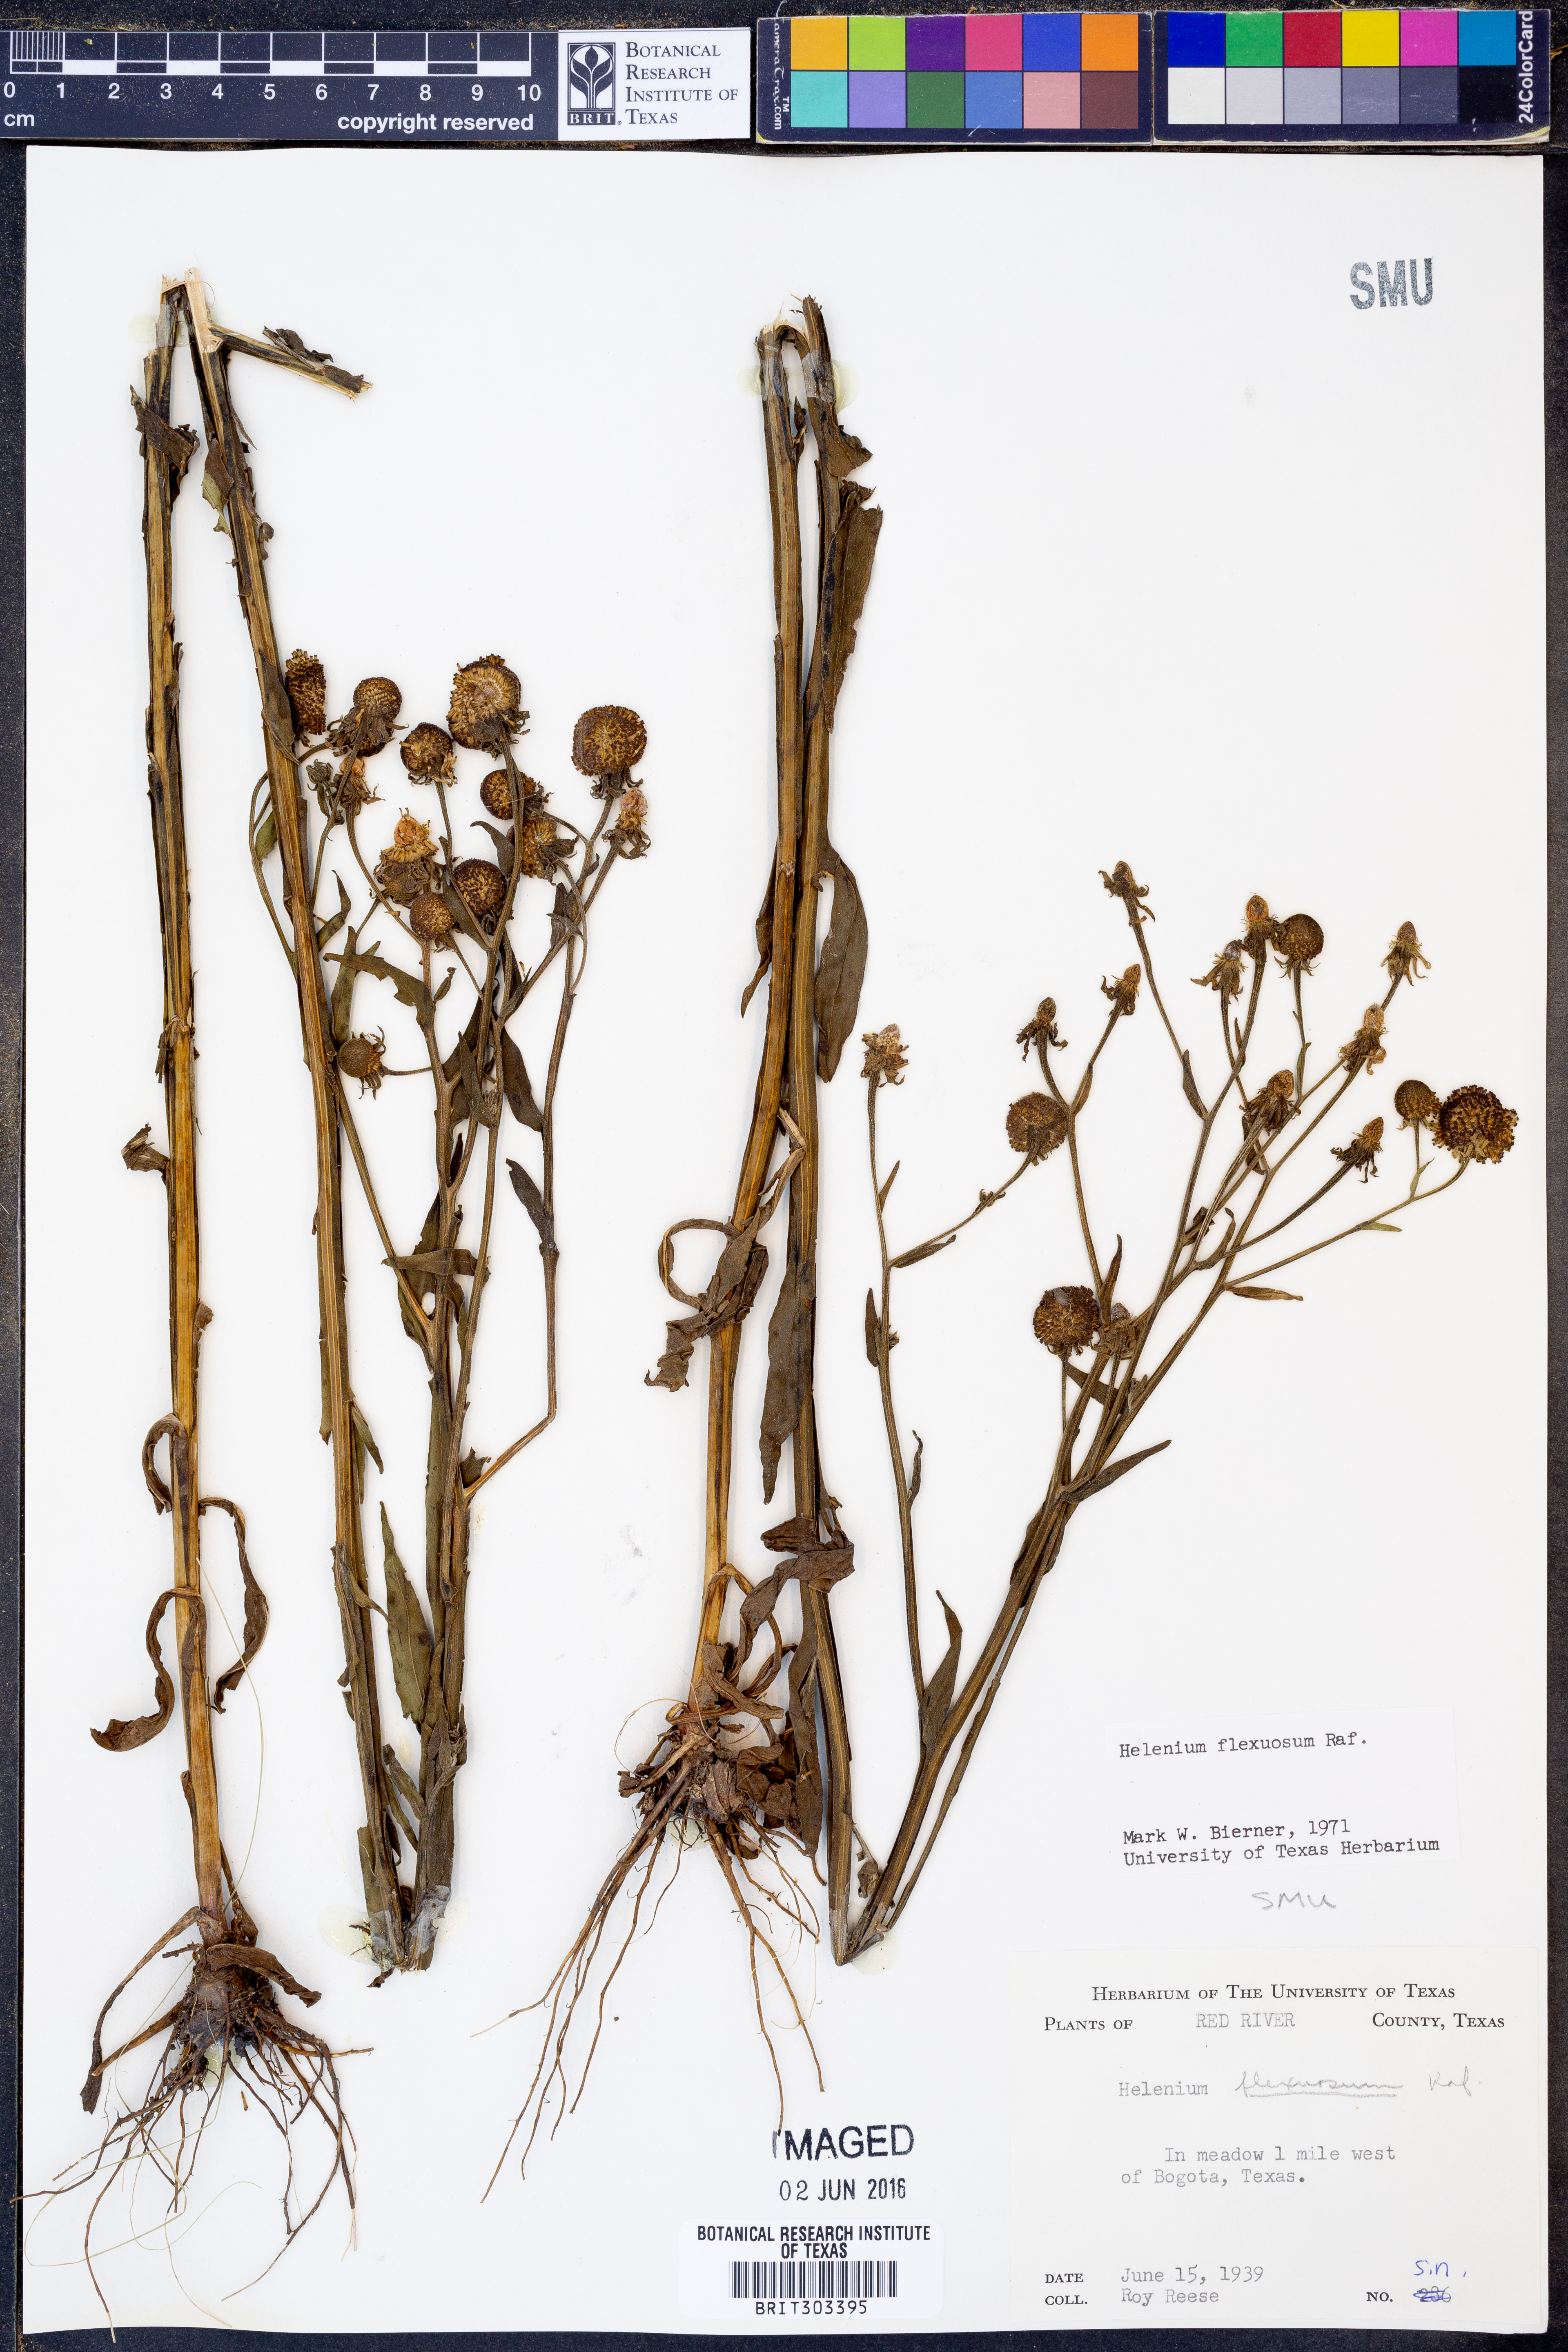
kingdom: Plantae
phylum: Tracheophyta
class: Magnoliopsida
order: Asterales
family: Asteraceae
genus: Helenium
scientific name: Helenium flexuosum
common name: Naked-flowered sneezeweed
